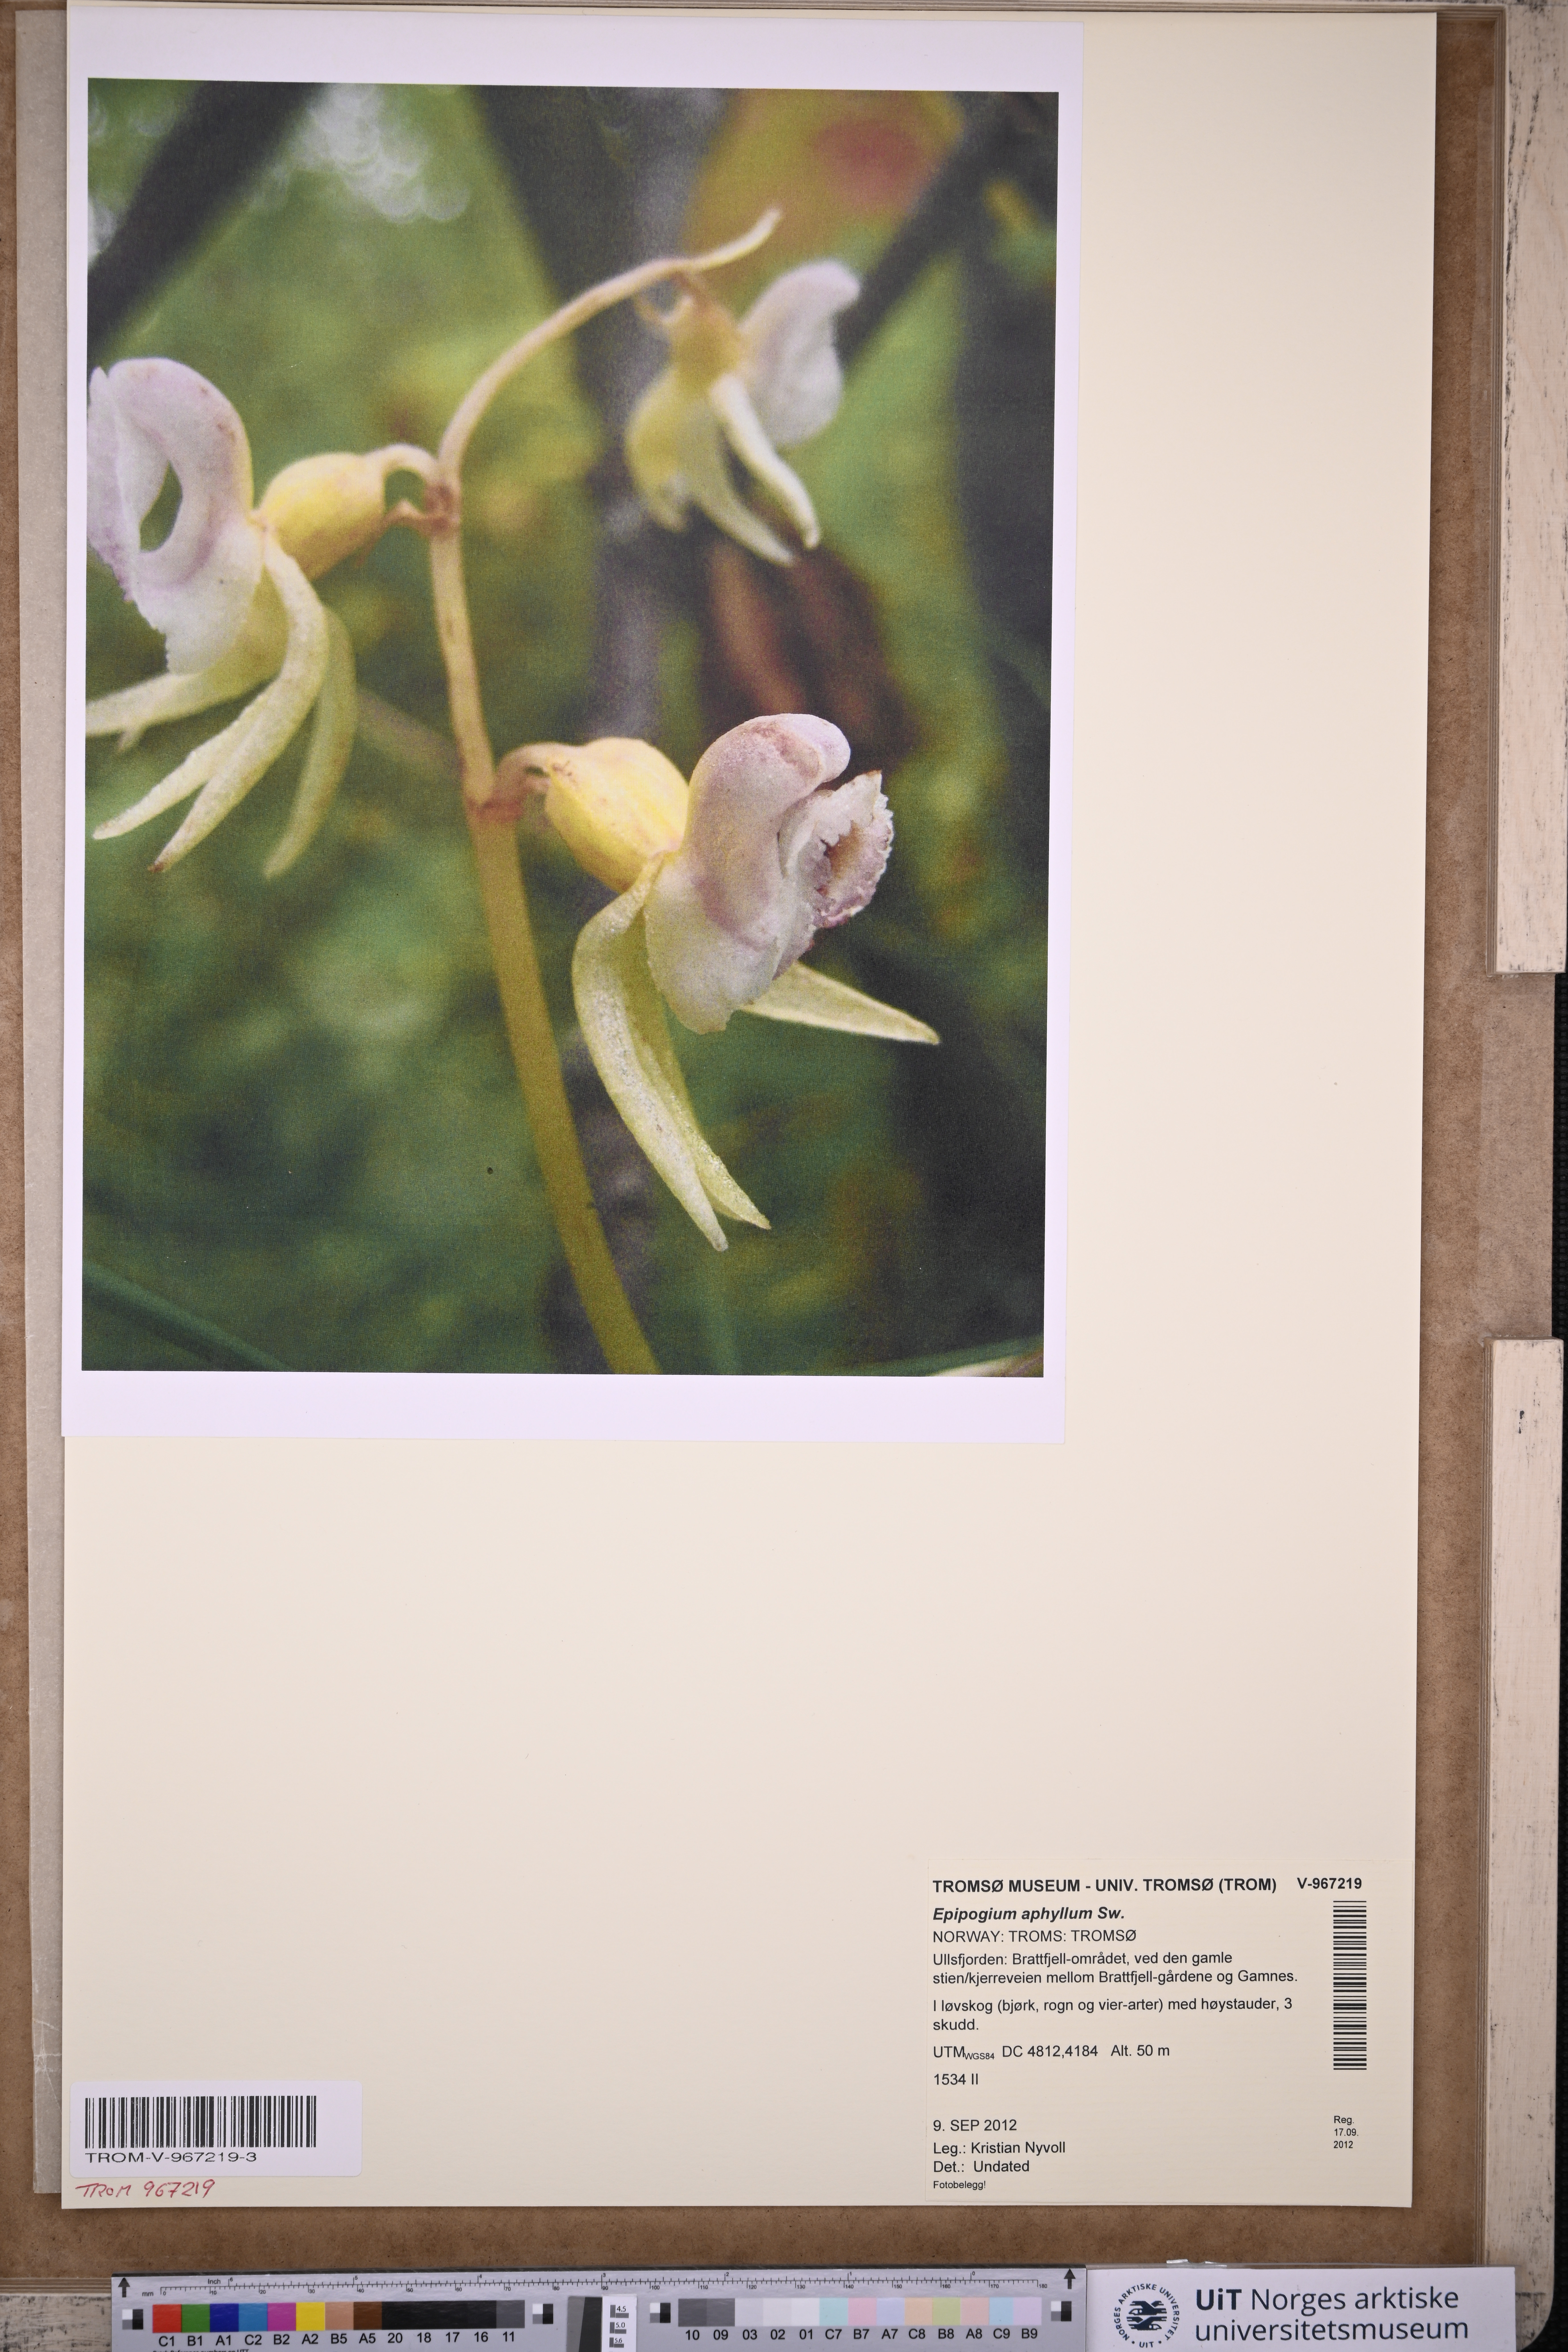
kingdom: Plantae
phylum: Tracheophyta
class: Liliopsida
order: Asparagales
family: Orchidaceae
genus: Epipogium
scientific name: Epipogium aphyllum
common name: Ghost orchid
